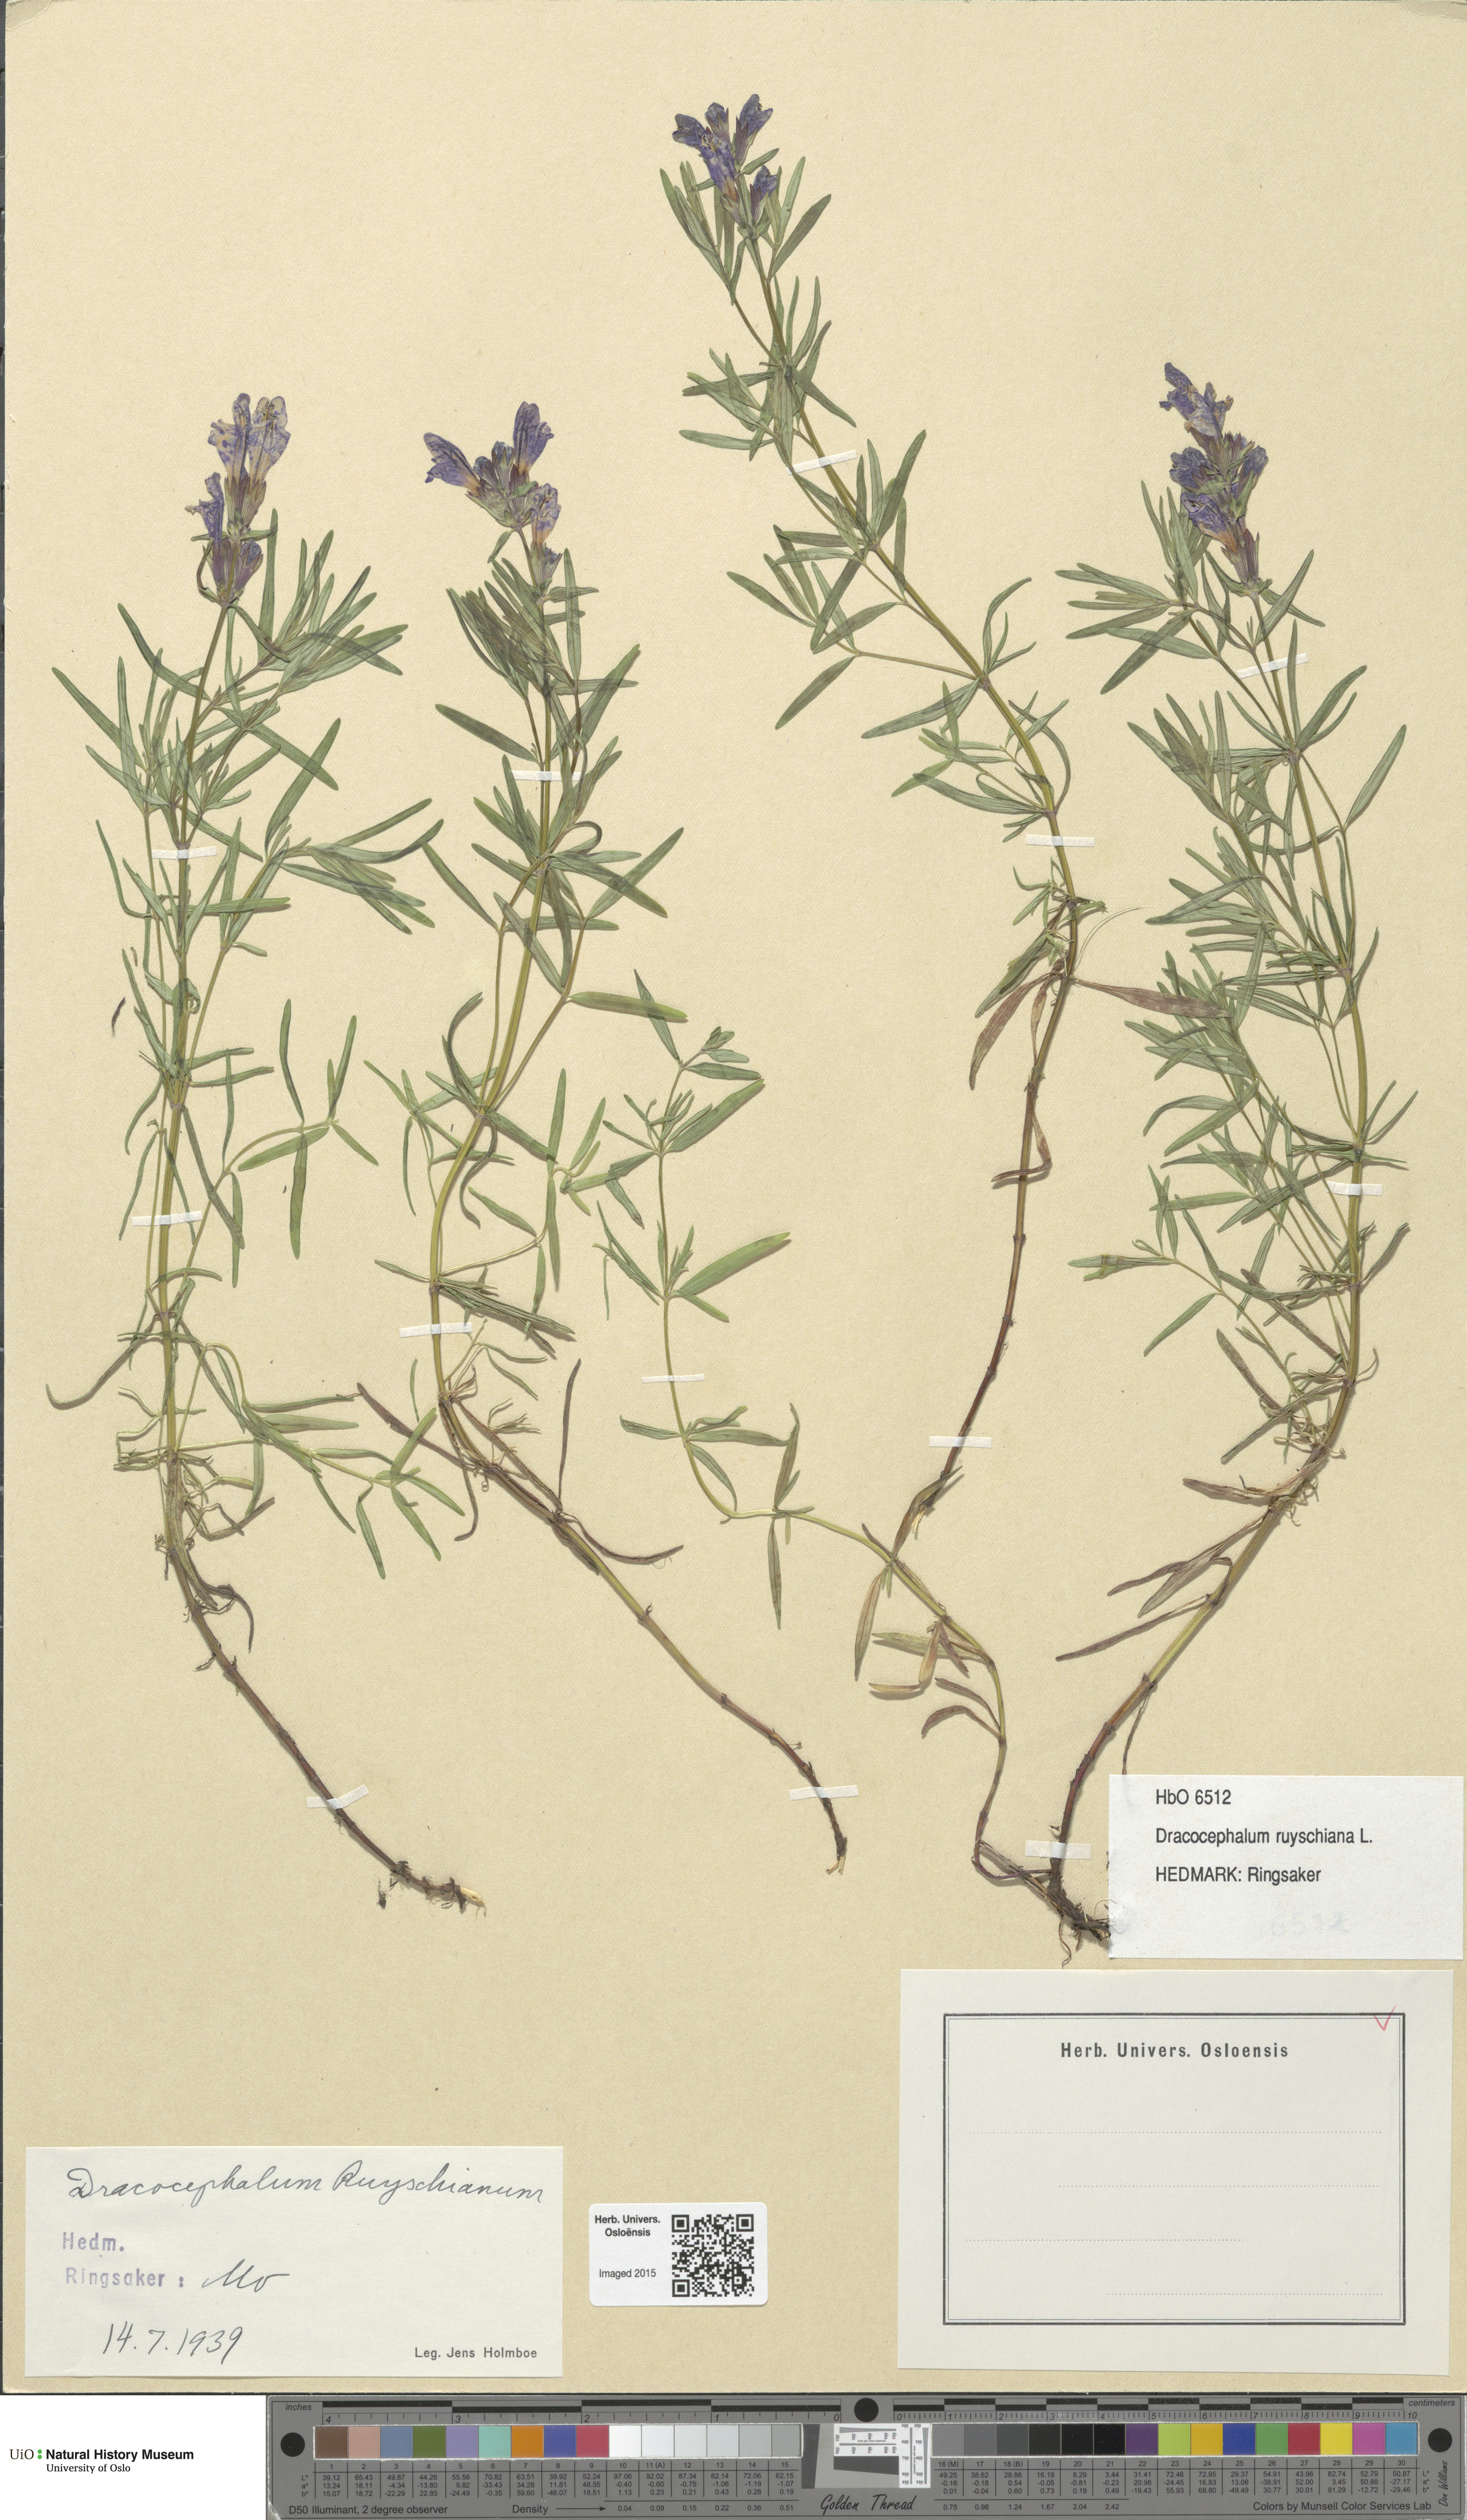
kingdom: Plantae
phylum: Tracheophyta
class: Magnoliopsida
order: Lamiales
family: Lamiaceae
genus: Dracocephalum
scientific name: Dracocephalum ruyschiana
